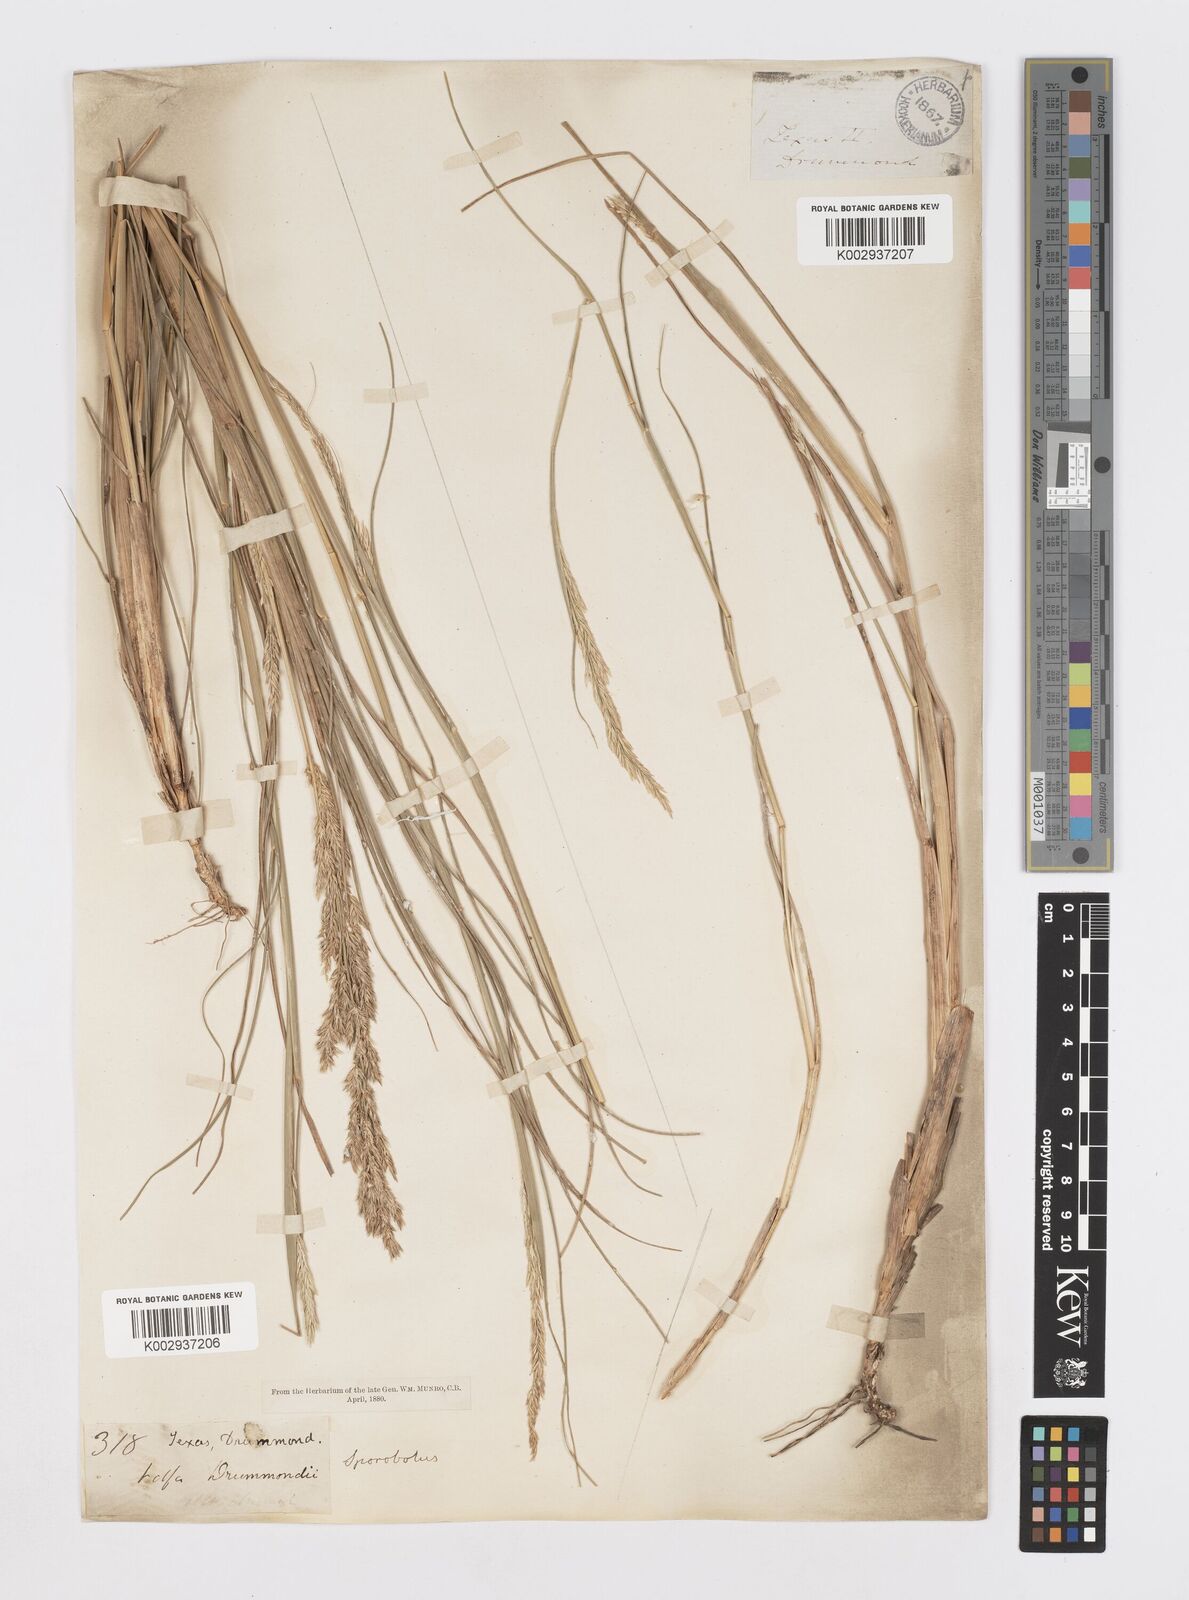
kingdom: Plantae
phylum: Tracheophyta
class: Liliopsida
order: Poales
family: Poaceae
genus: Sporobolus
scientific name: Sporobolus compositus
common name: Rough dropseed
